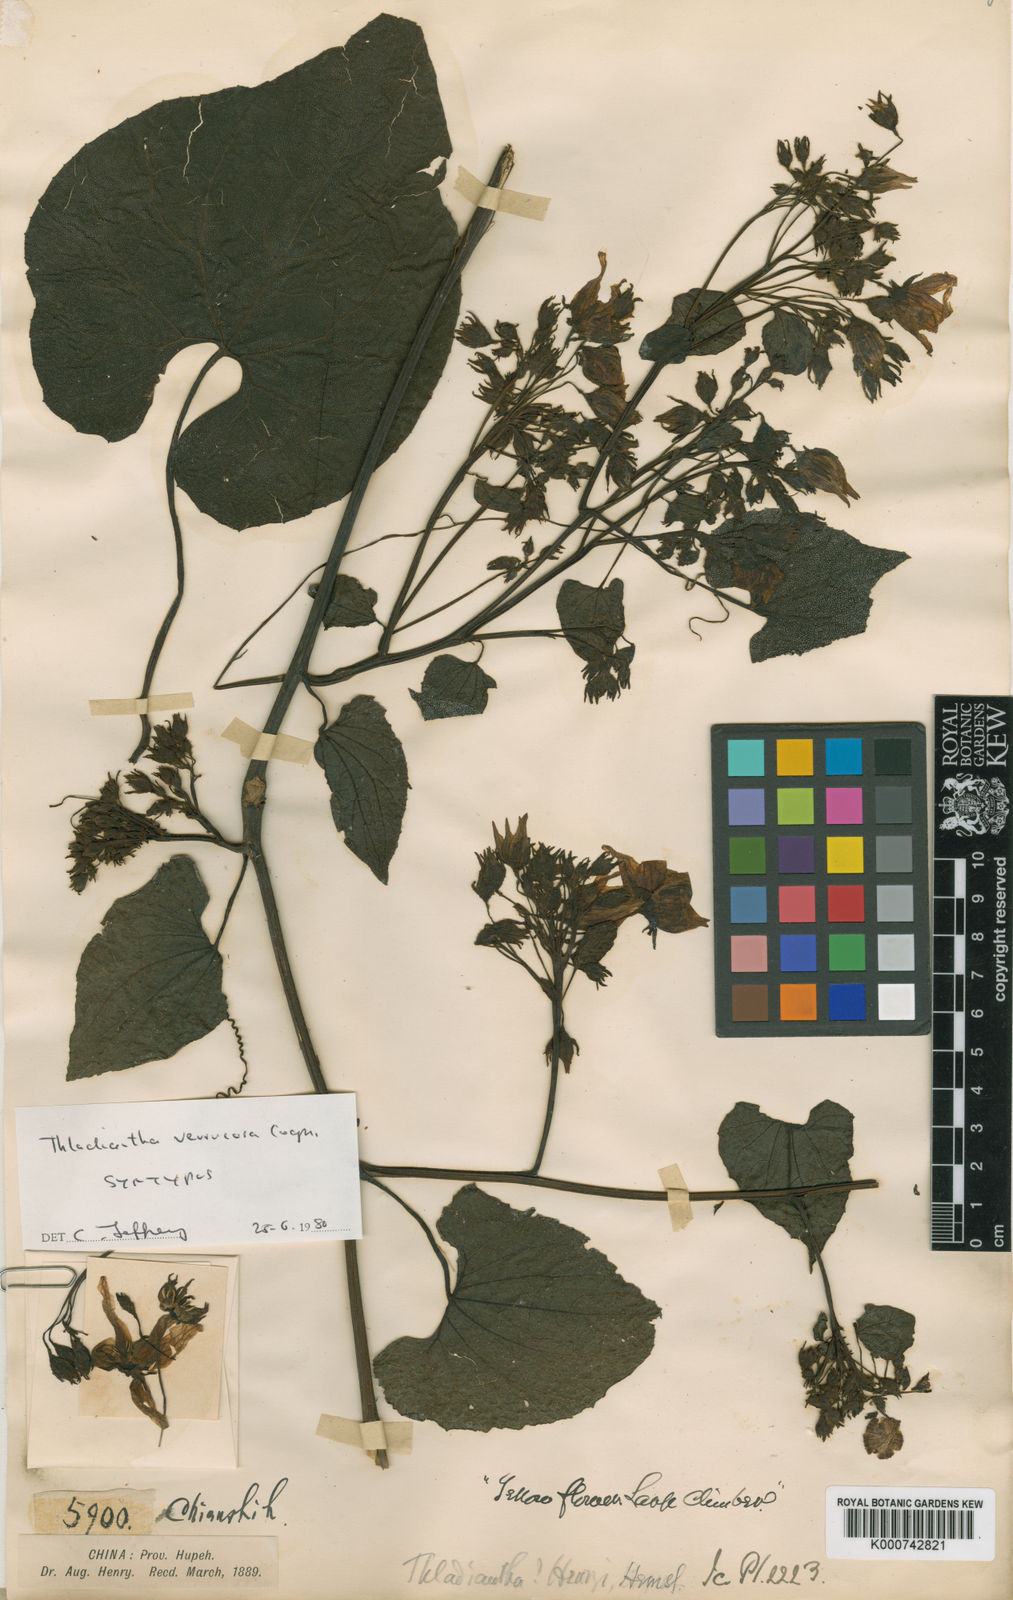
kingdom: Plantae
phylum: Tracheophyta
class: Magnoliopsida
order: Cucurbitales
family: Cucurbitaceae
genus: Thladiantha
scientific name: Thladiantha henryi
